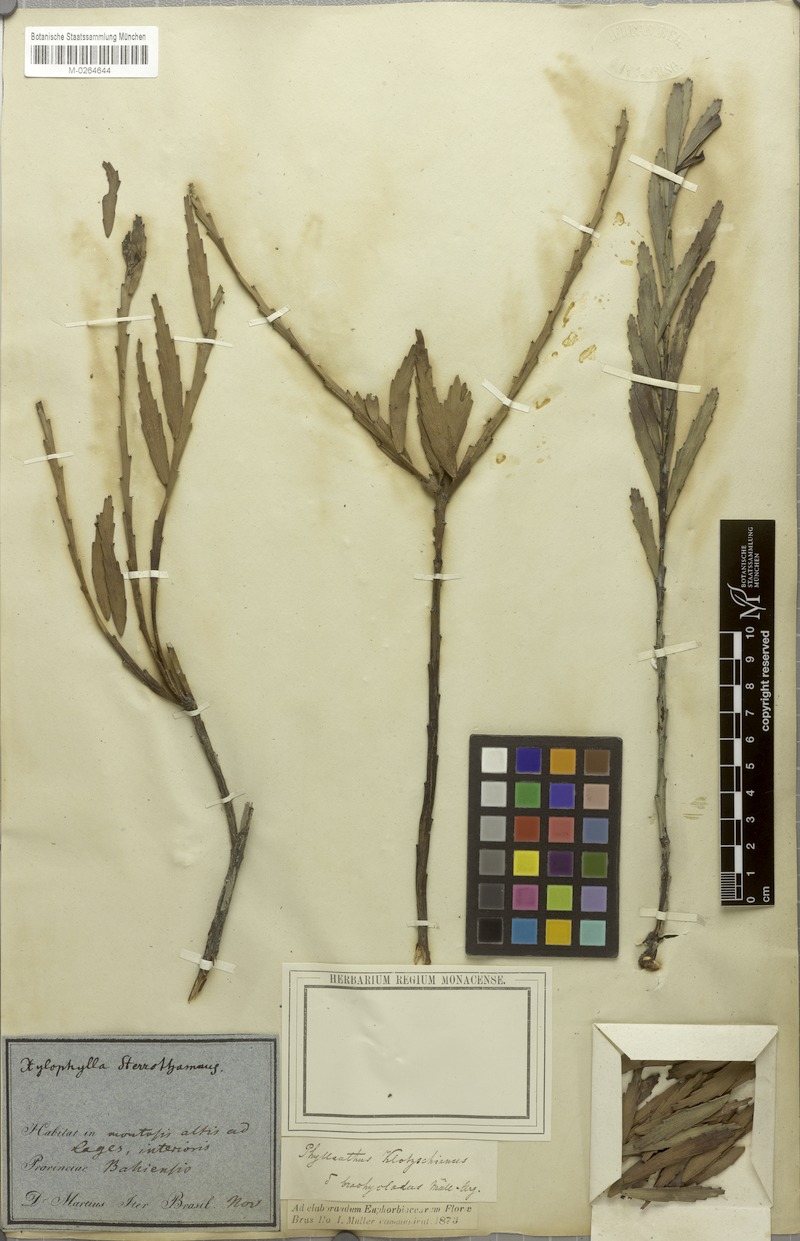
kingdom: Plantae
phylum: Tracheophyta
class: Magnoliopsida
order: Malpighiales
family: Phyllanthaceae
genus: Phyllanthus
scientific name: Phyllanthus robustus
